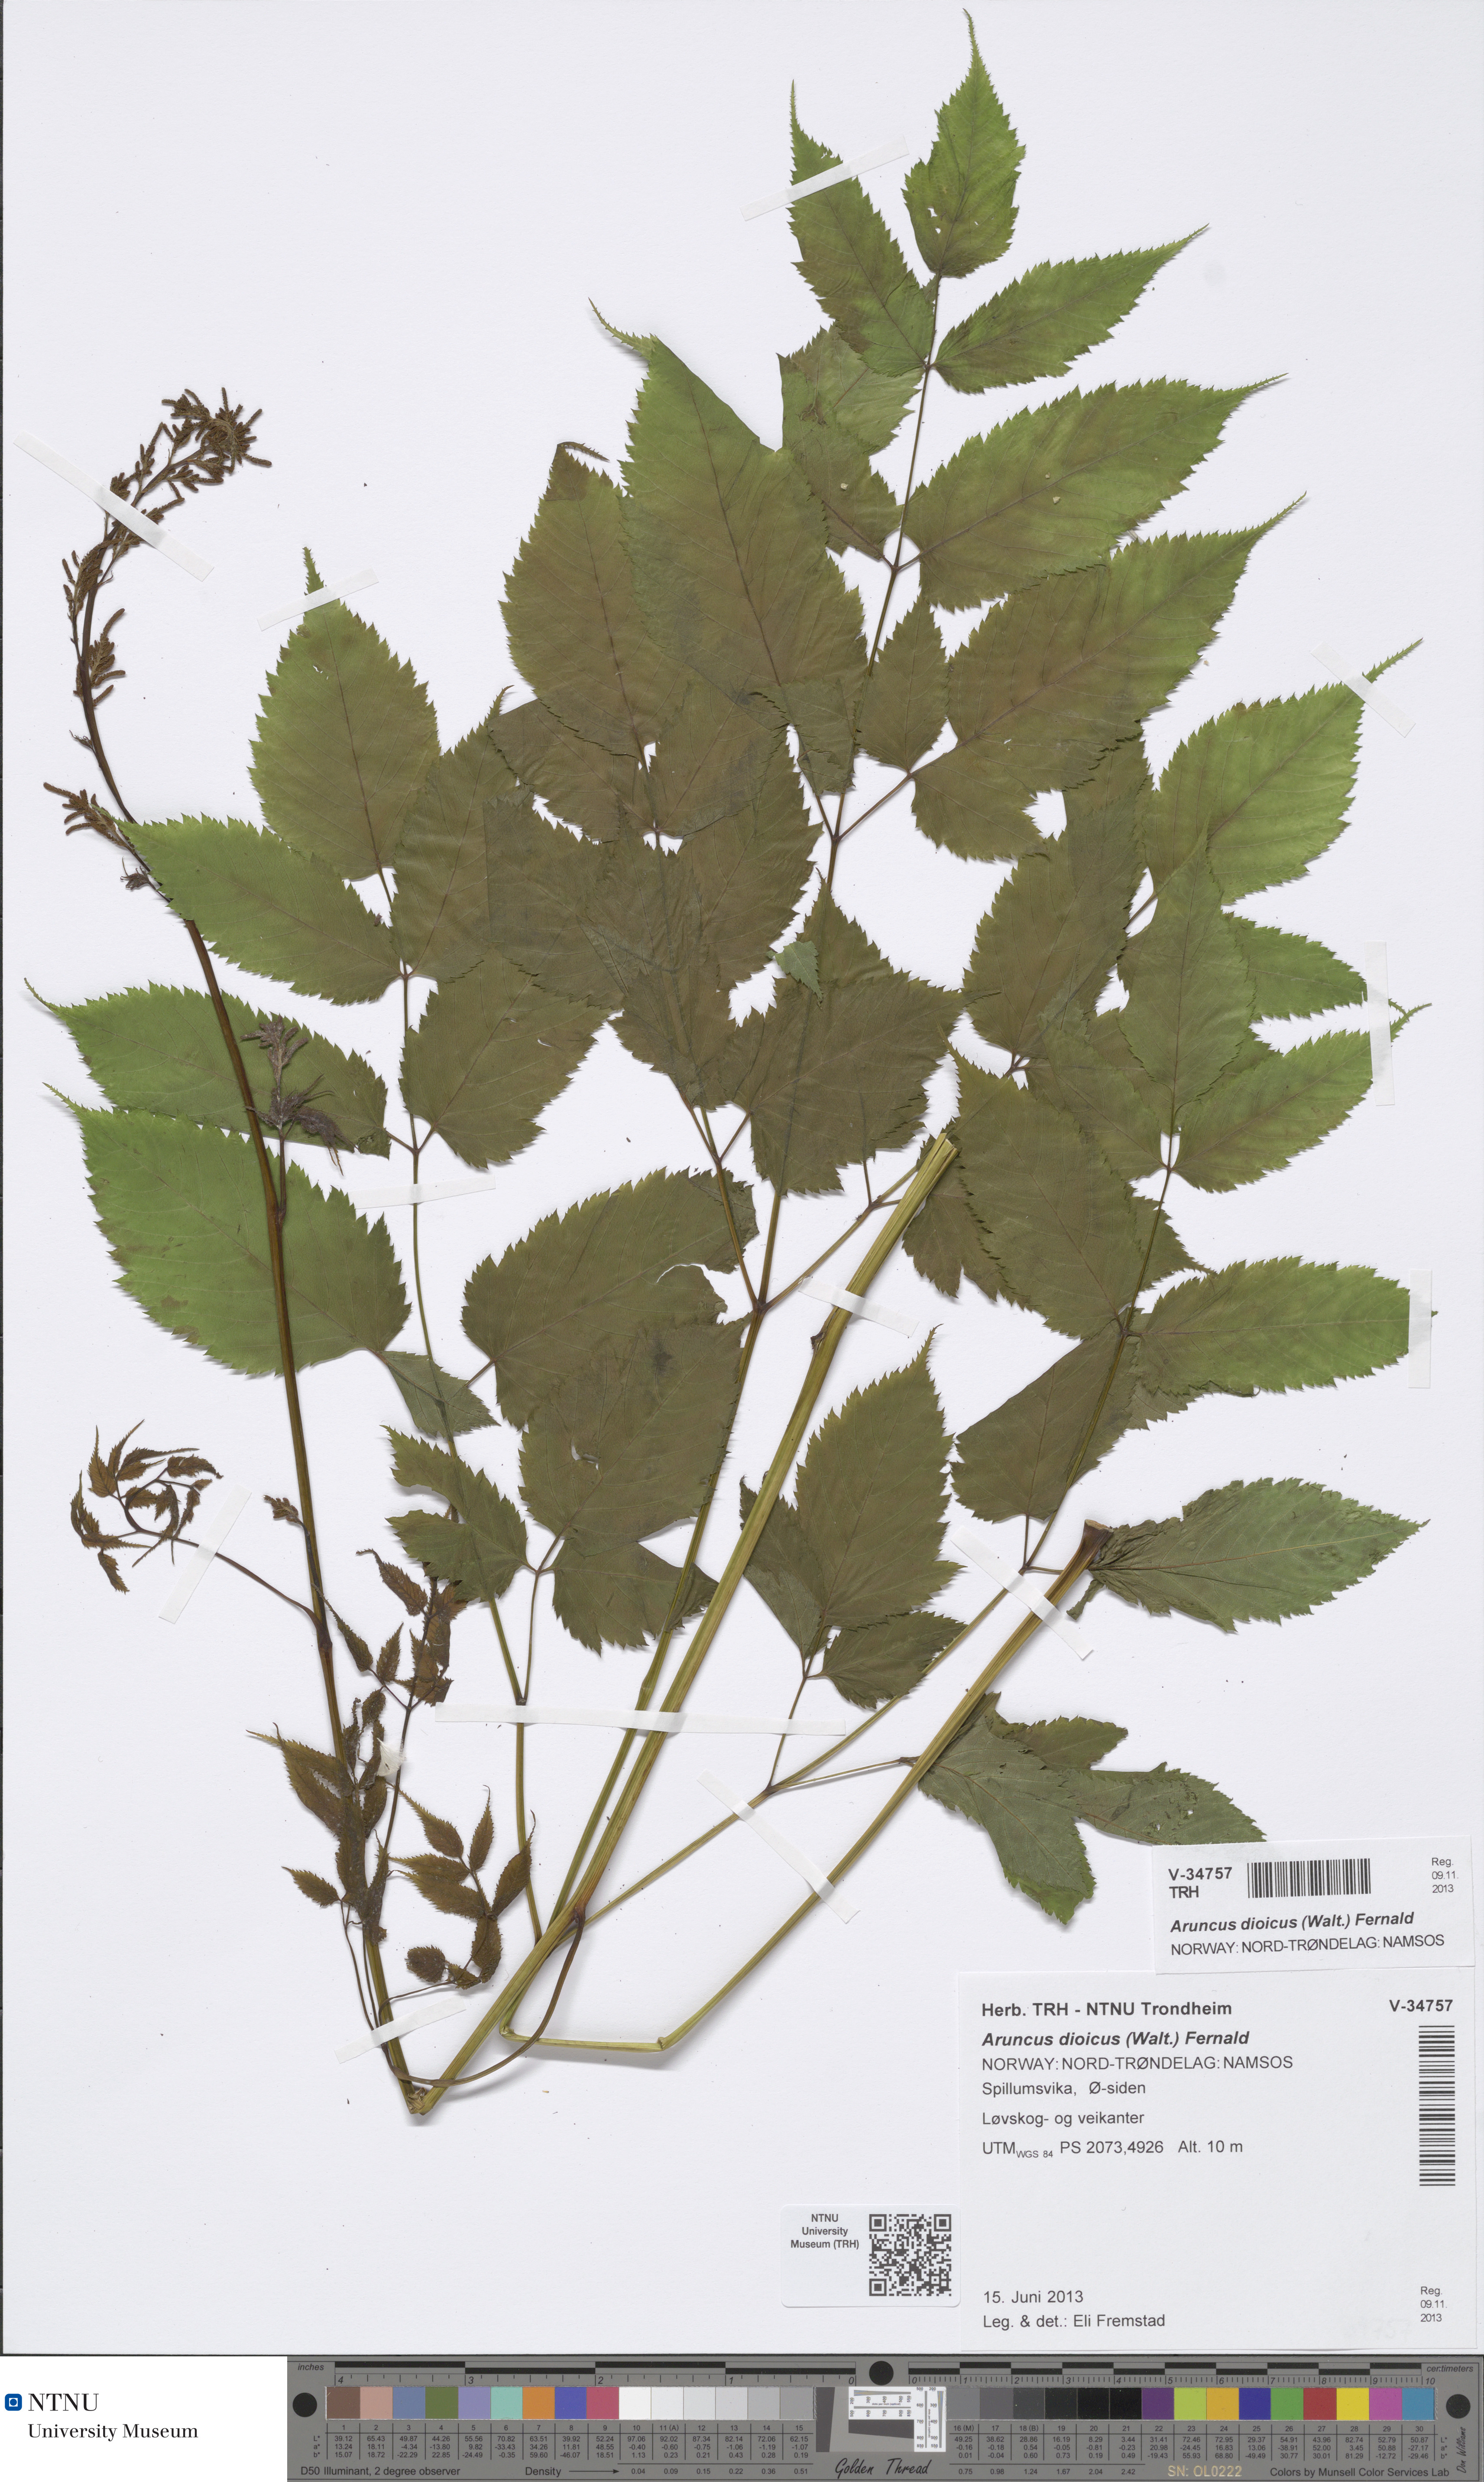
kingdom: Plantae
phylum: Tracheophyta
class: Magnoliopsida
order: Rosales
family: Rosaceae
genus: Aruncus
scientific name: Aruncus dioicus
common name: Buck's-beard
